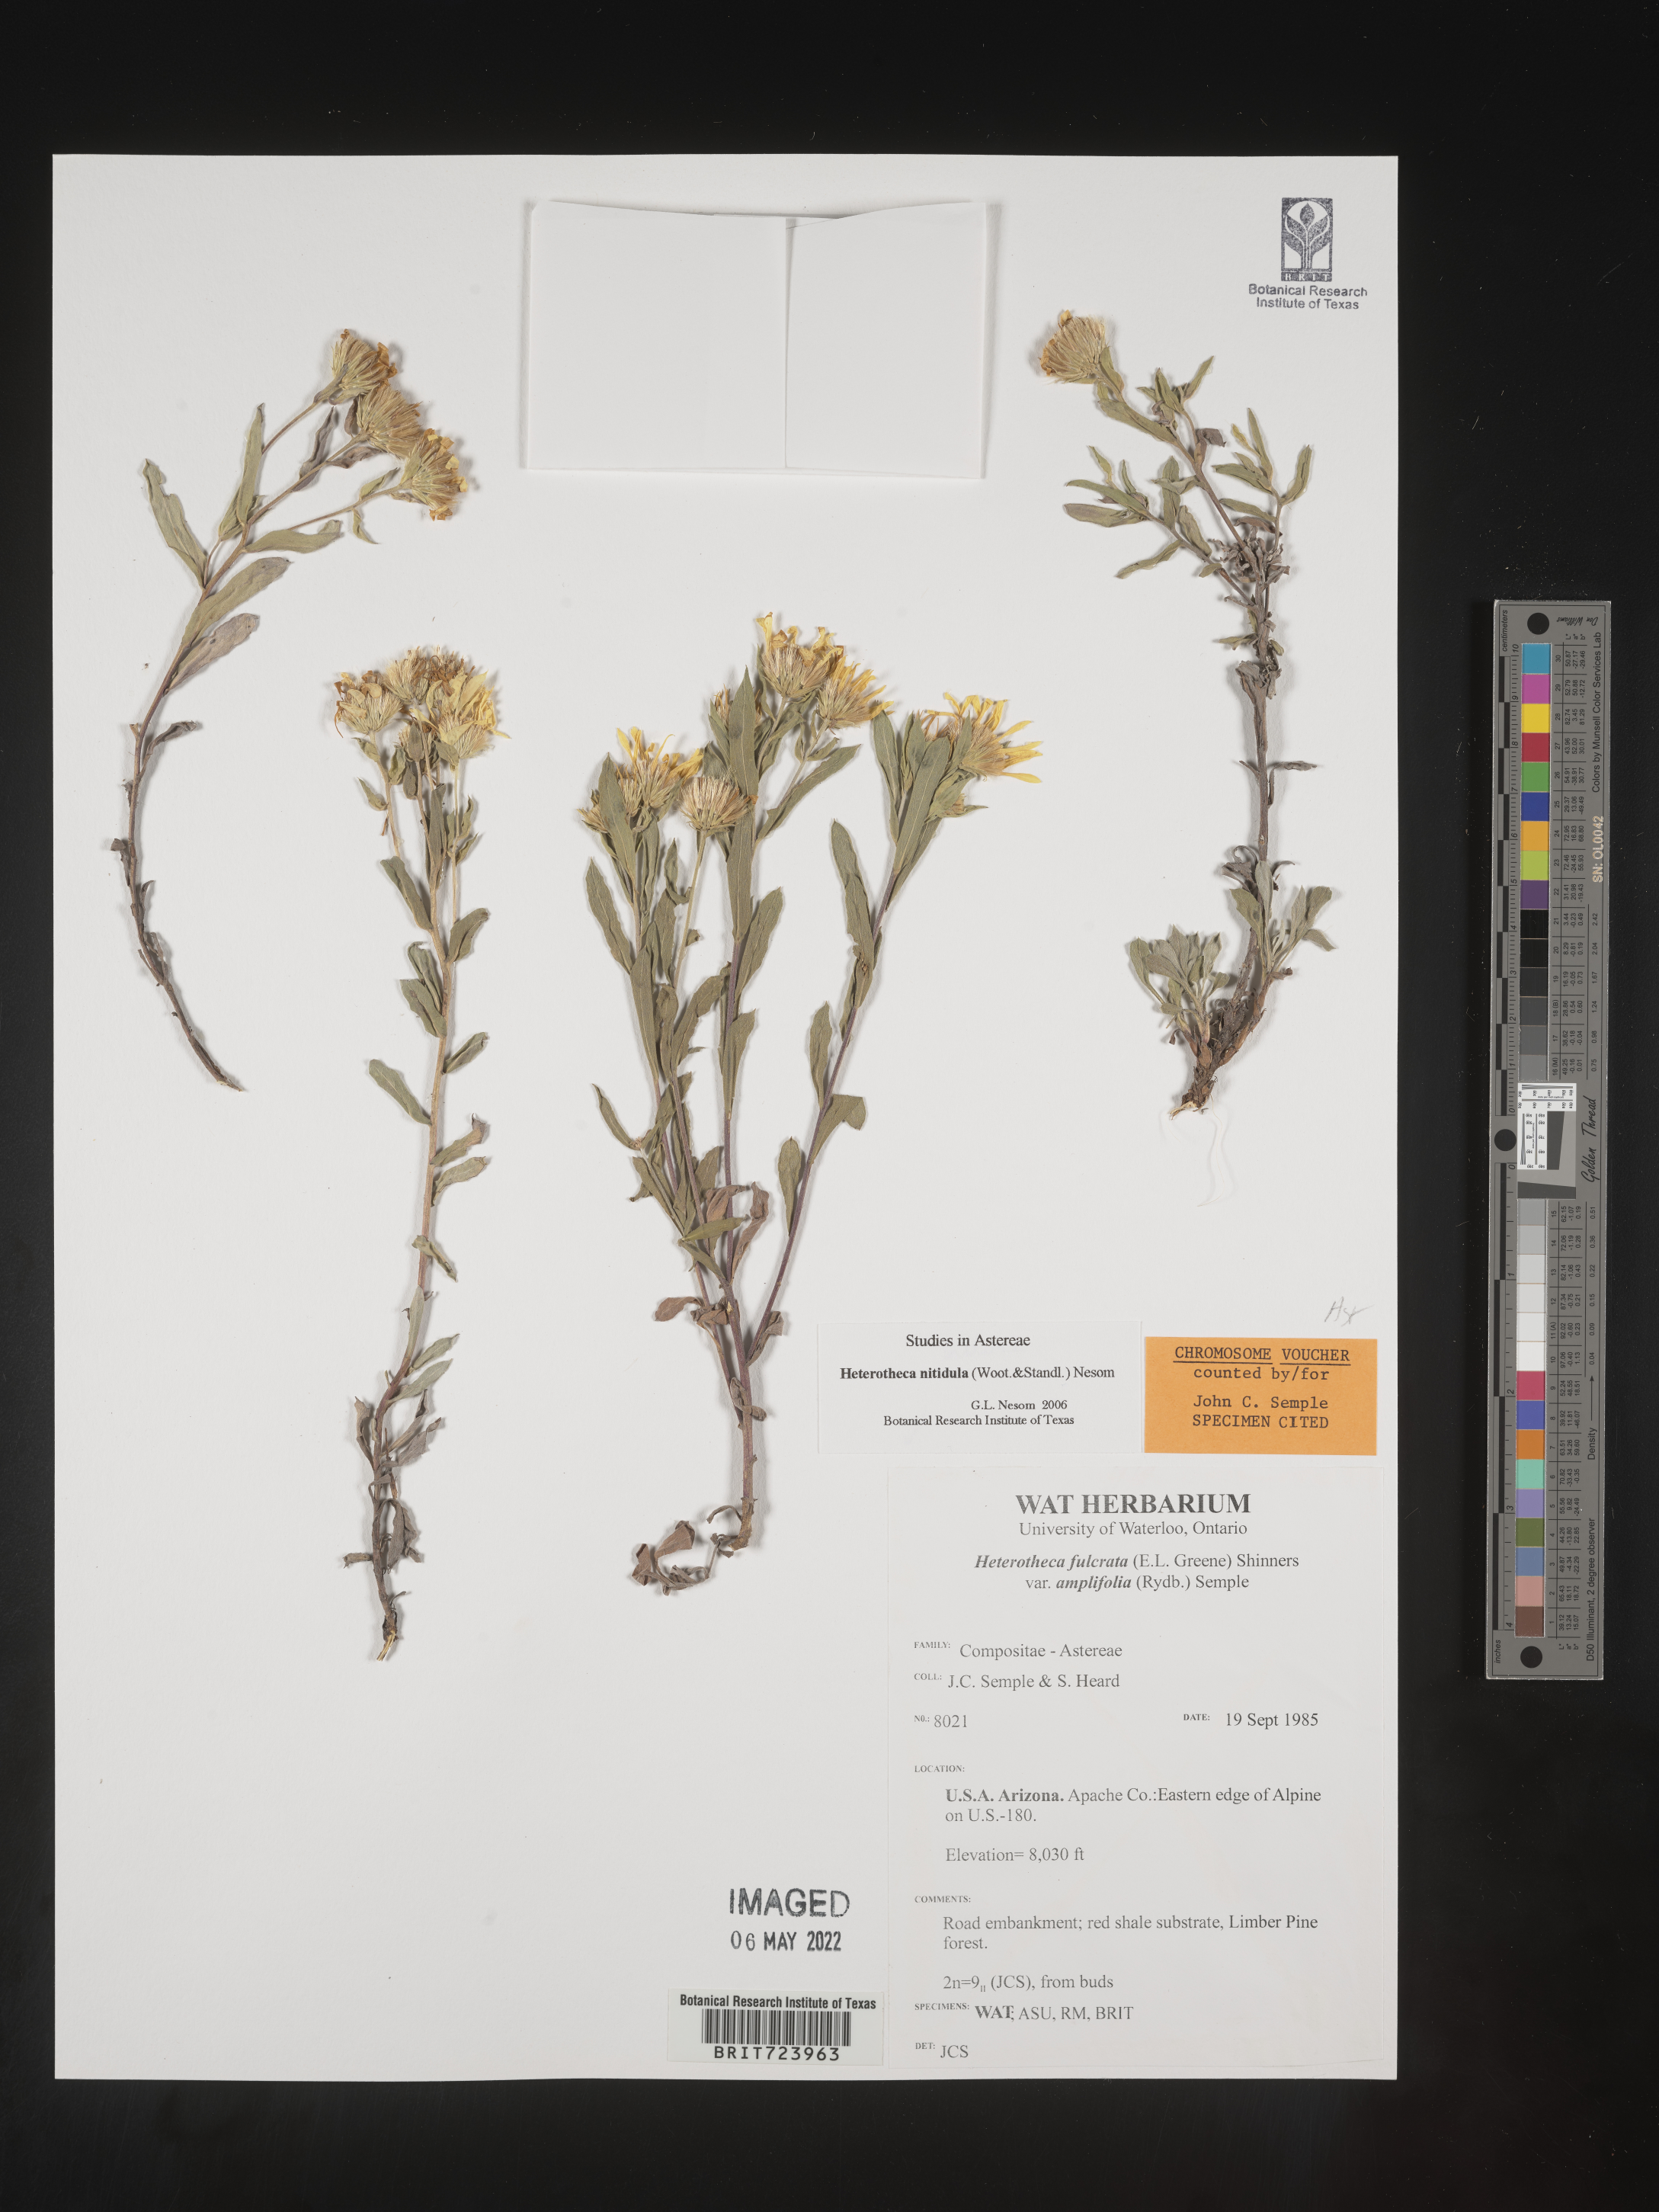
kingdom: Plantae
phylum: Tracheophyta
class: Magnoliopsida
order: Asterales
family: Asteraceae
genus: Heterotheca
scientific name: Heterotheca nitidula
